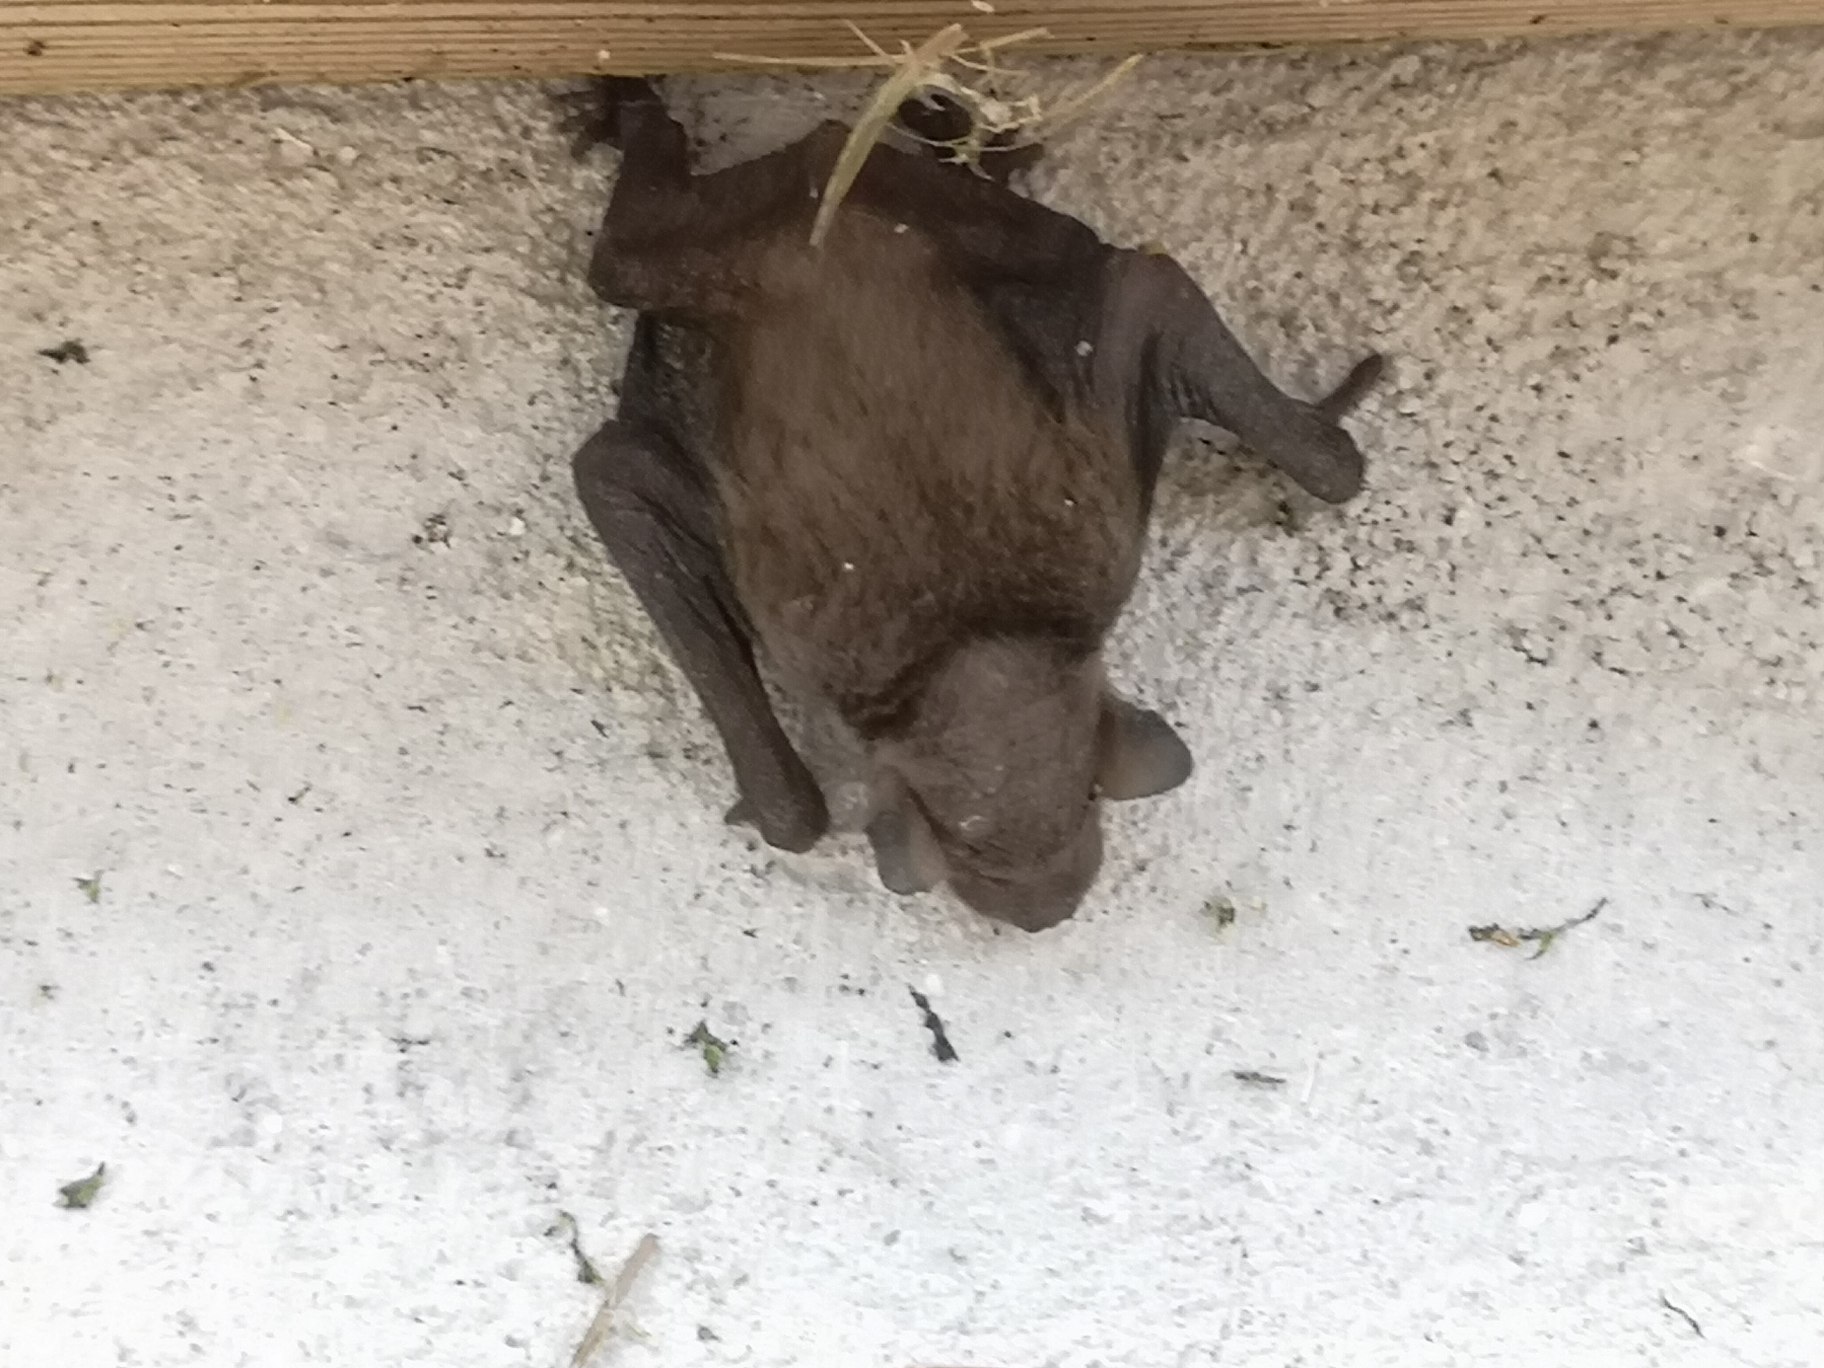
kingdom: Animalia
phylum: Chordata
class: Mammalia
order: Chiroptera
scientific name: Chiroptera
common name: Flagermus
